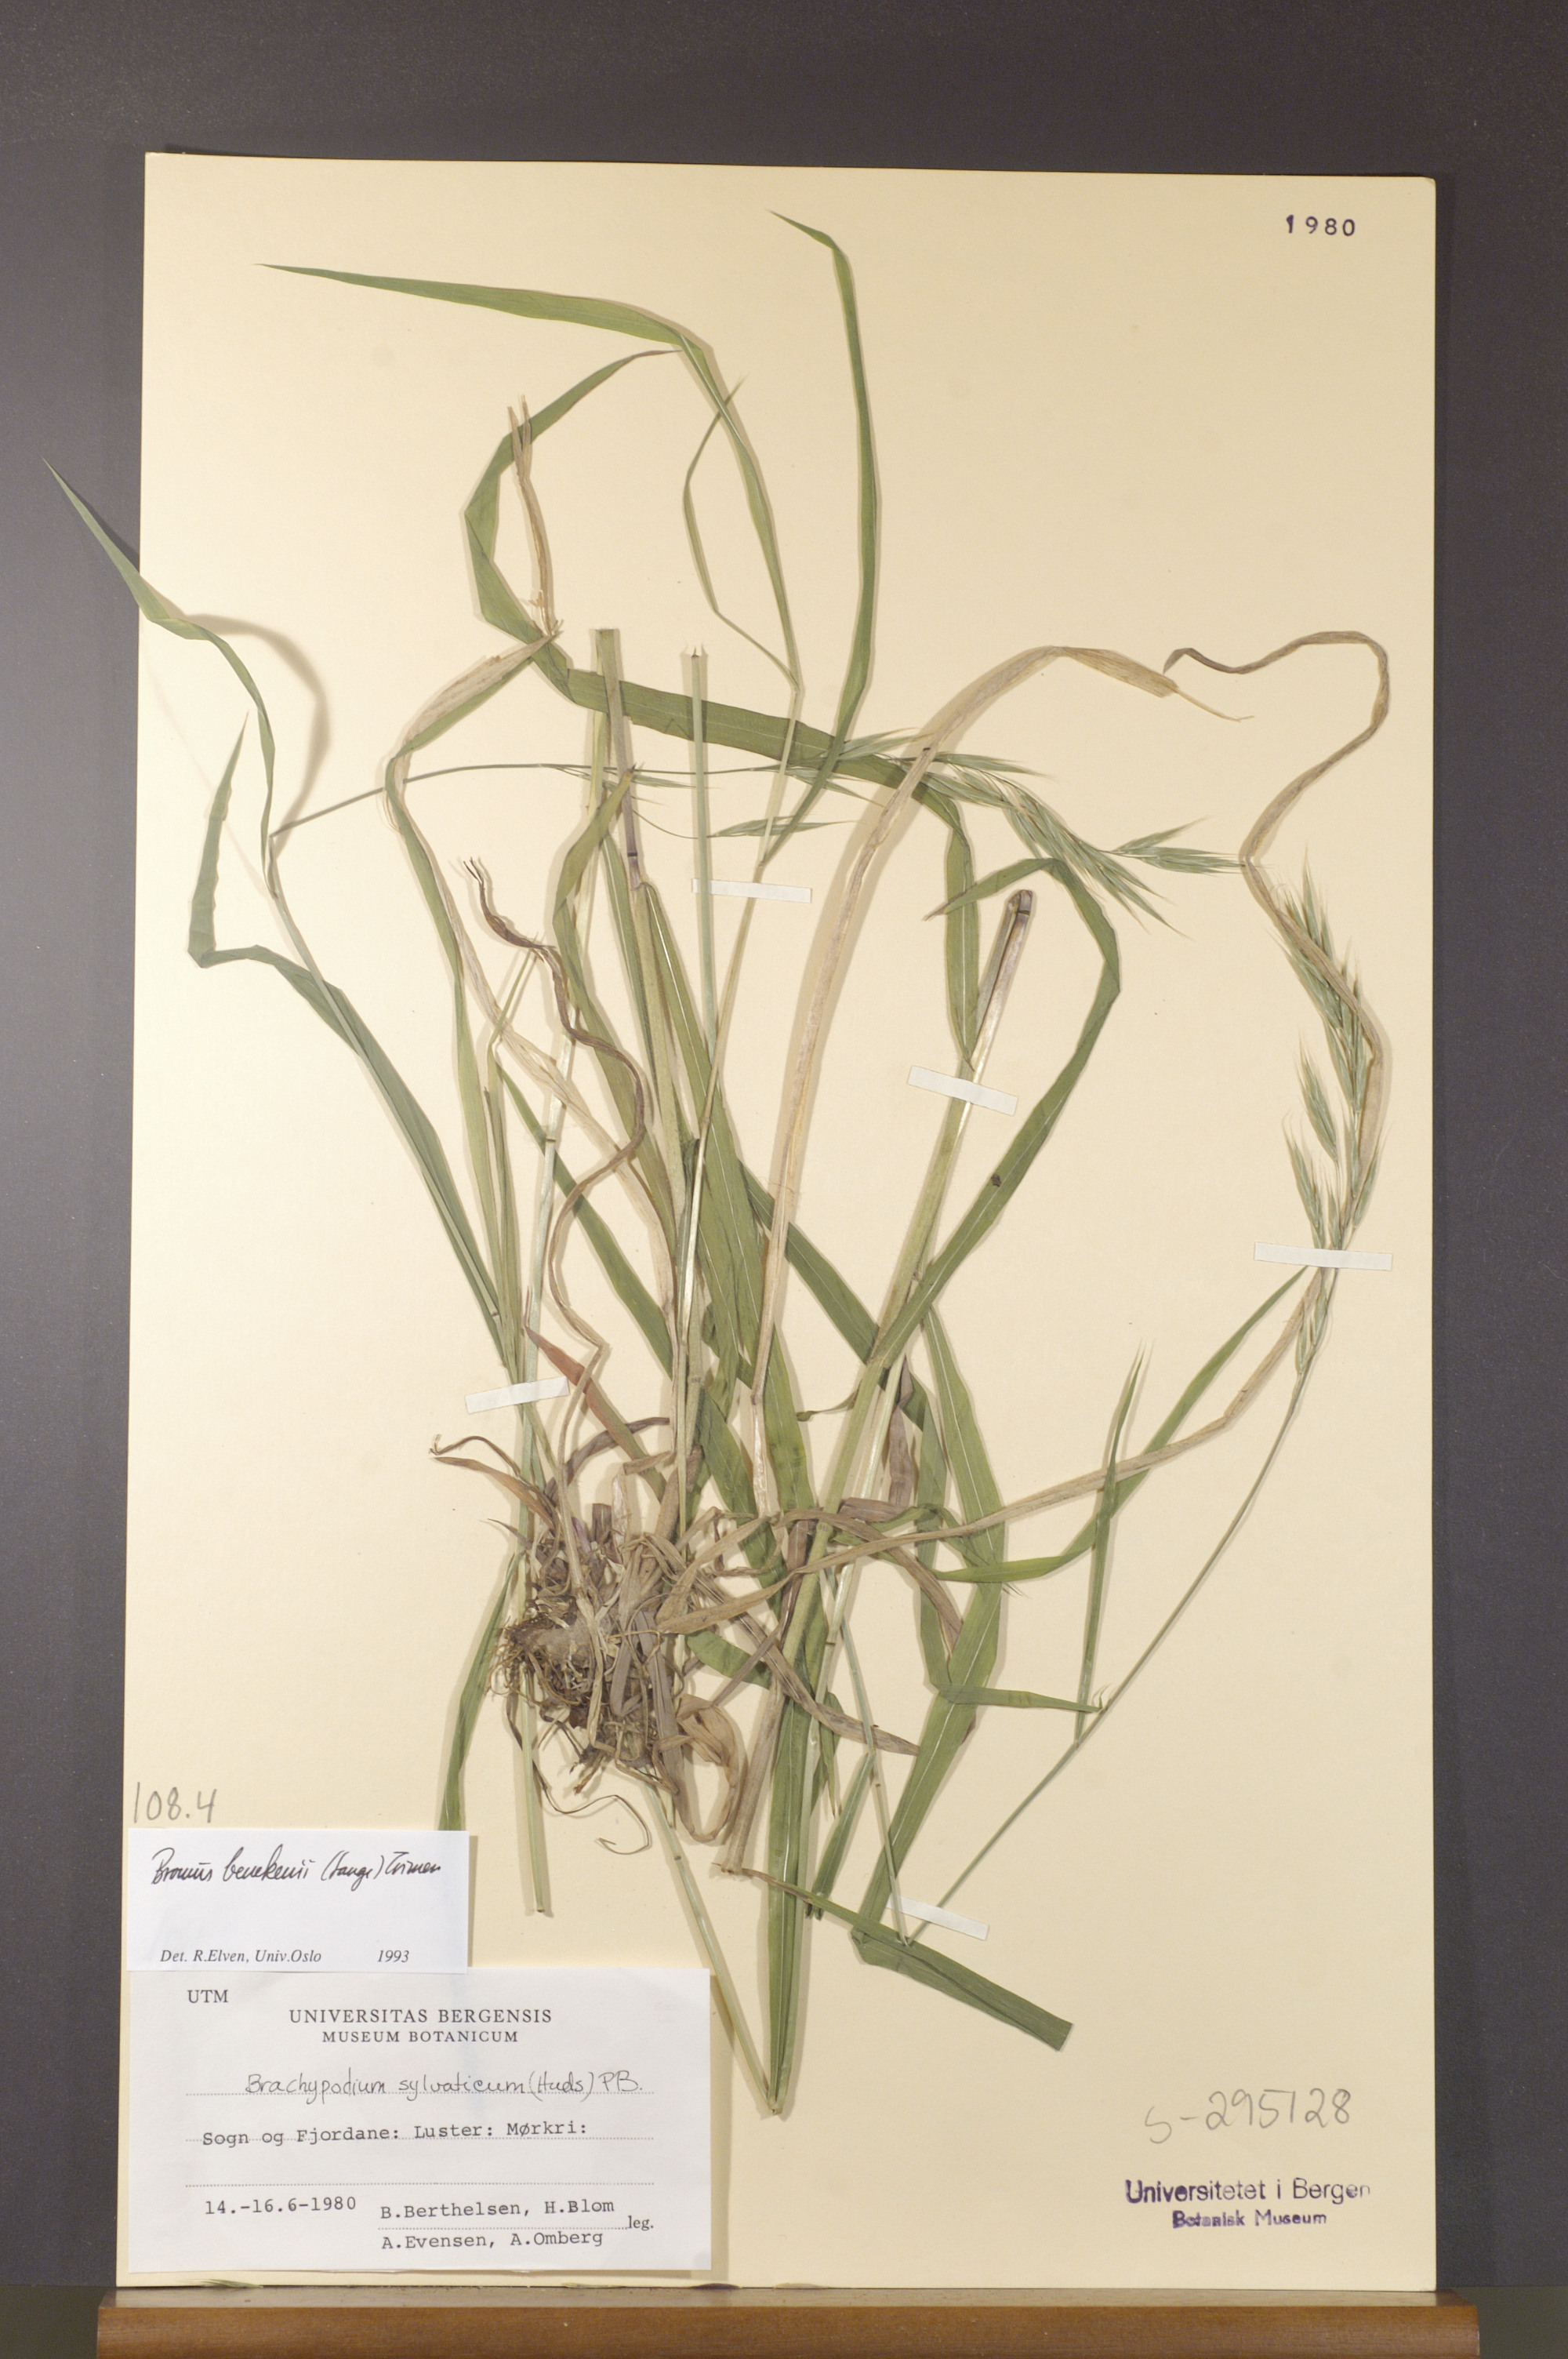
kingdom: Plantae
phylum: Tracheophyta
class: Liliopsida
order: Poales
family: Poaceae
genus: Bromus
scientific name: Bromus benekenii
